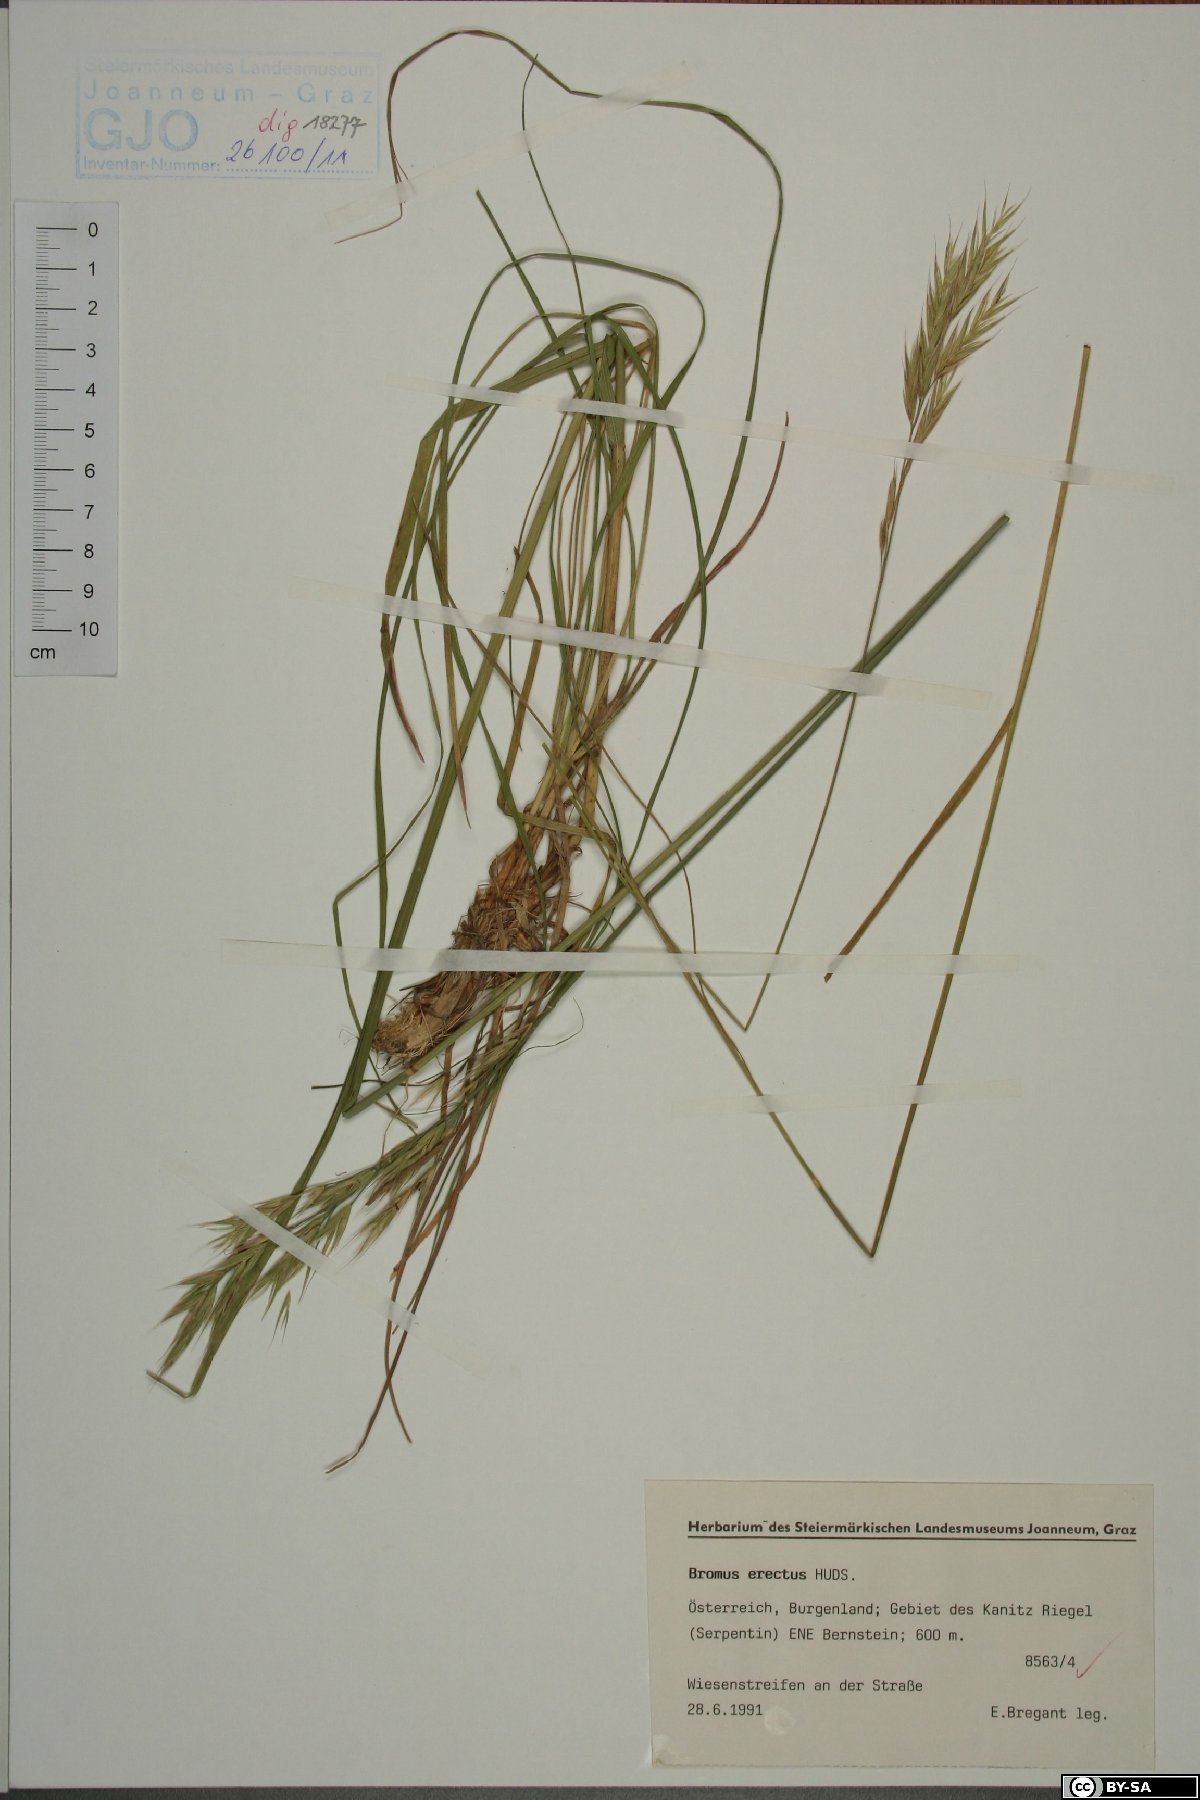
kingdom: Plantae
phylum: Tracheophyta
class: Liliopsida
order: Poales
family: Poaceae
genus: Bromus
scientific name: Bromus erectus
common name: Erect brome
